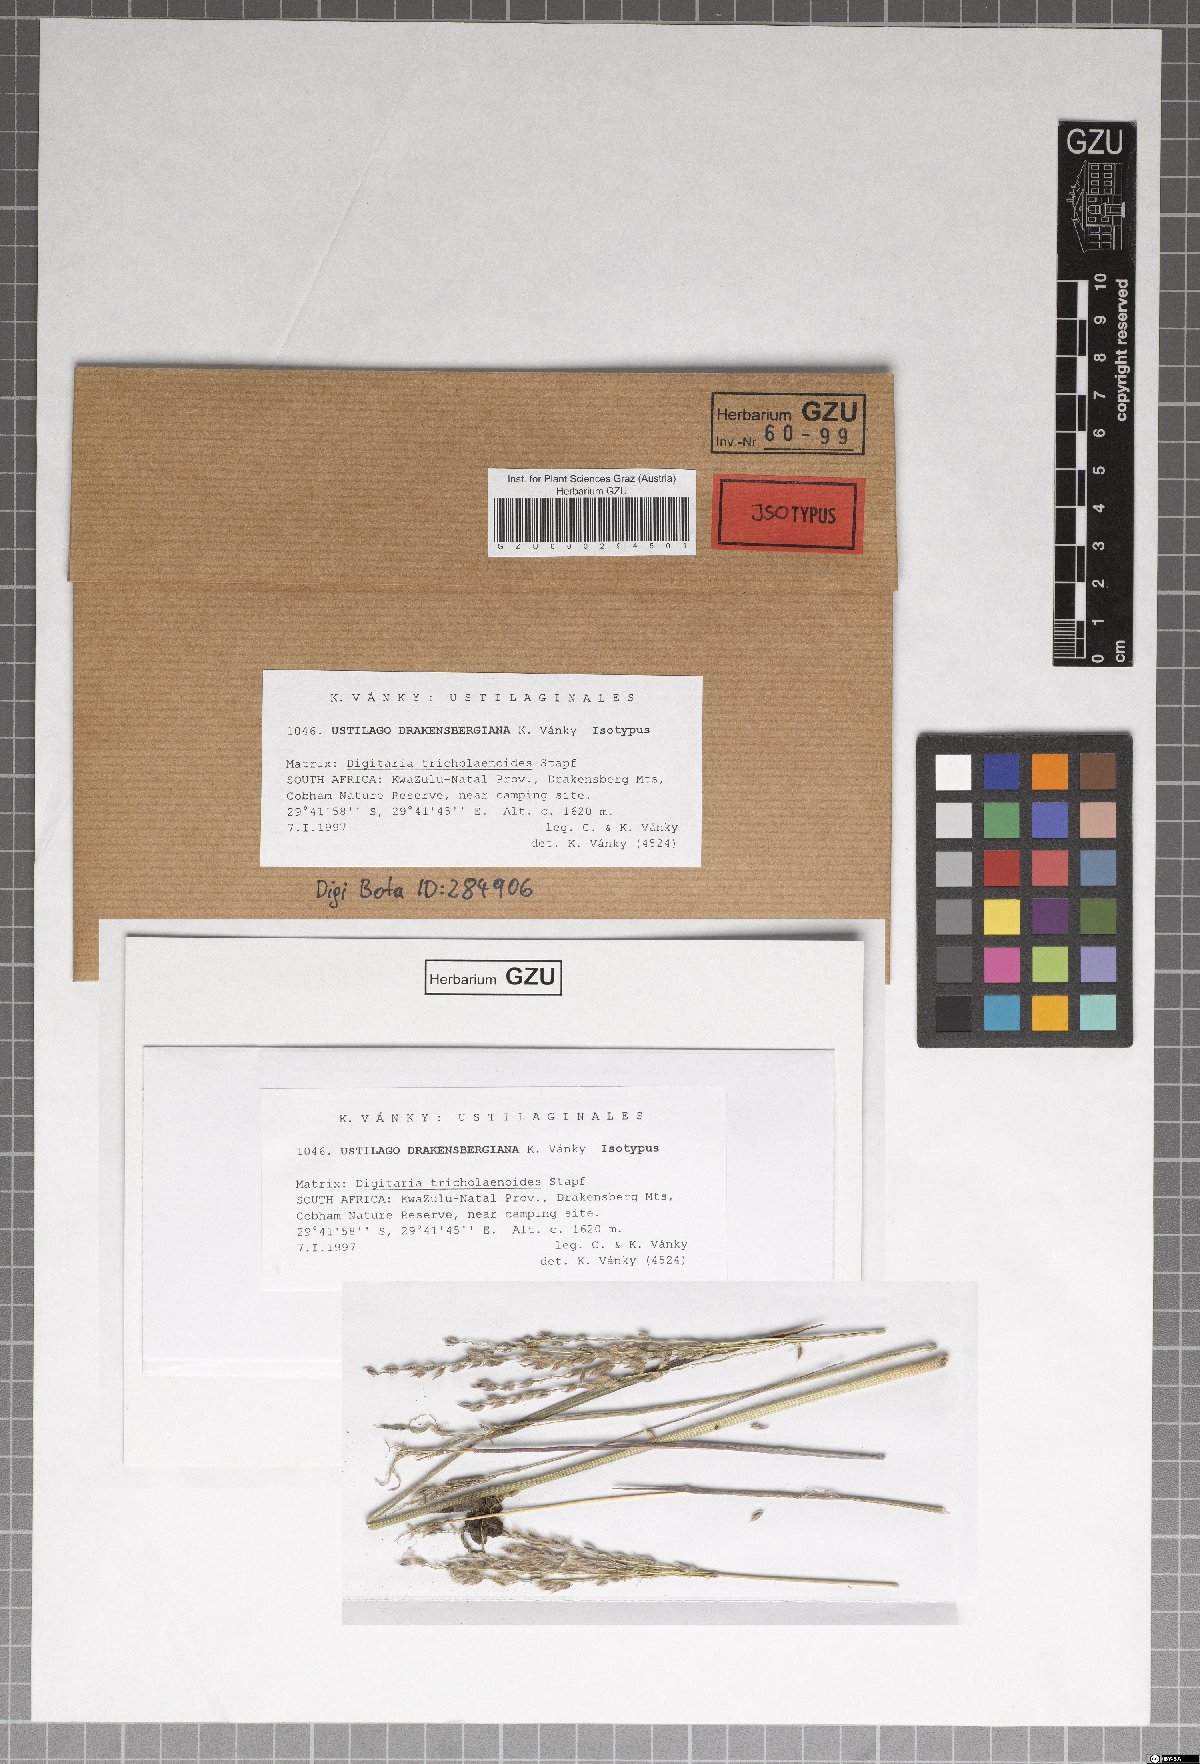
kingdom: Fungi
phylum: Basidiomycota
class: Ustilaginomycetes
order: Ustilaginales
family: Ustilaginaceae
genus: Ustilago
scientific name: Ustilago drakensbergiana
